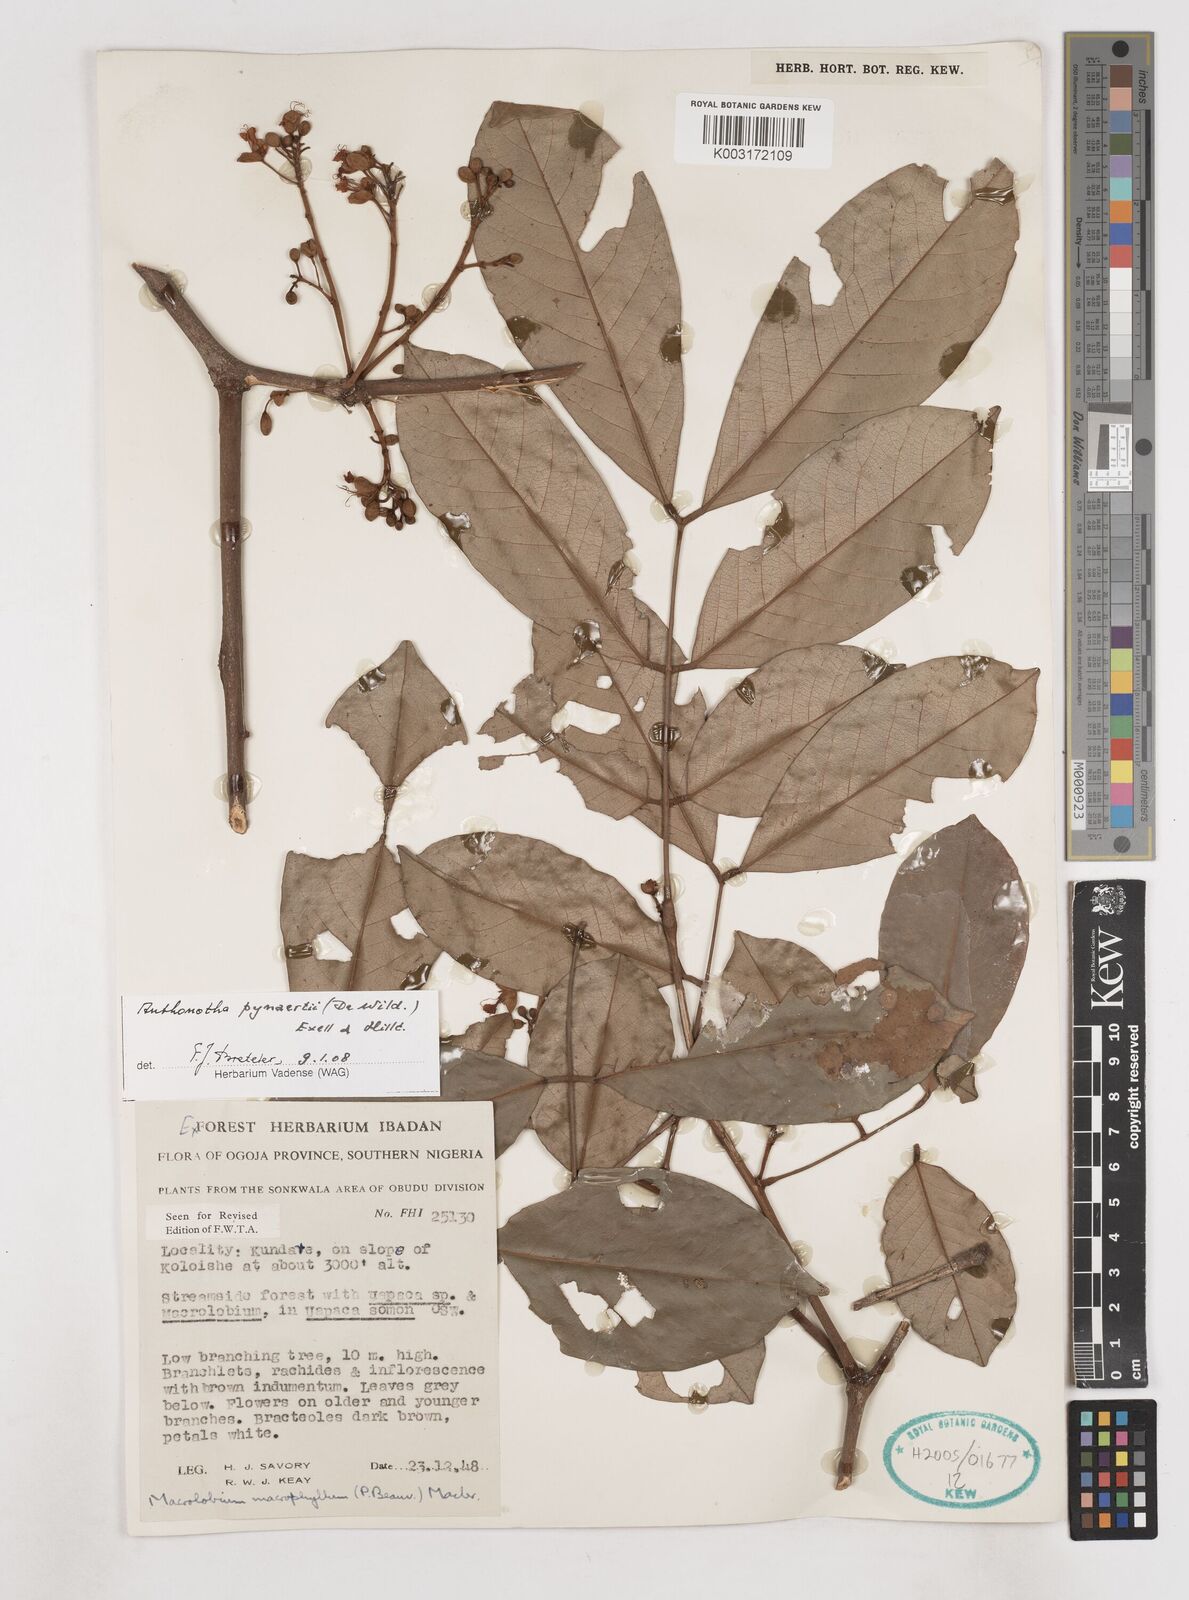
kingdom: Plantae
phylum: Tracheophyta
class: Magnoliopsida
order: Fabales
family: Fabaceae
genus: Anthonotha
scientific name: Anthonotha pynaertii
